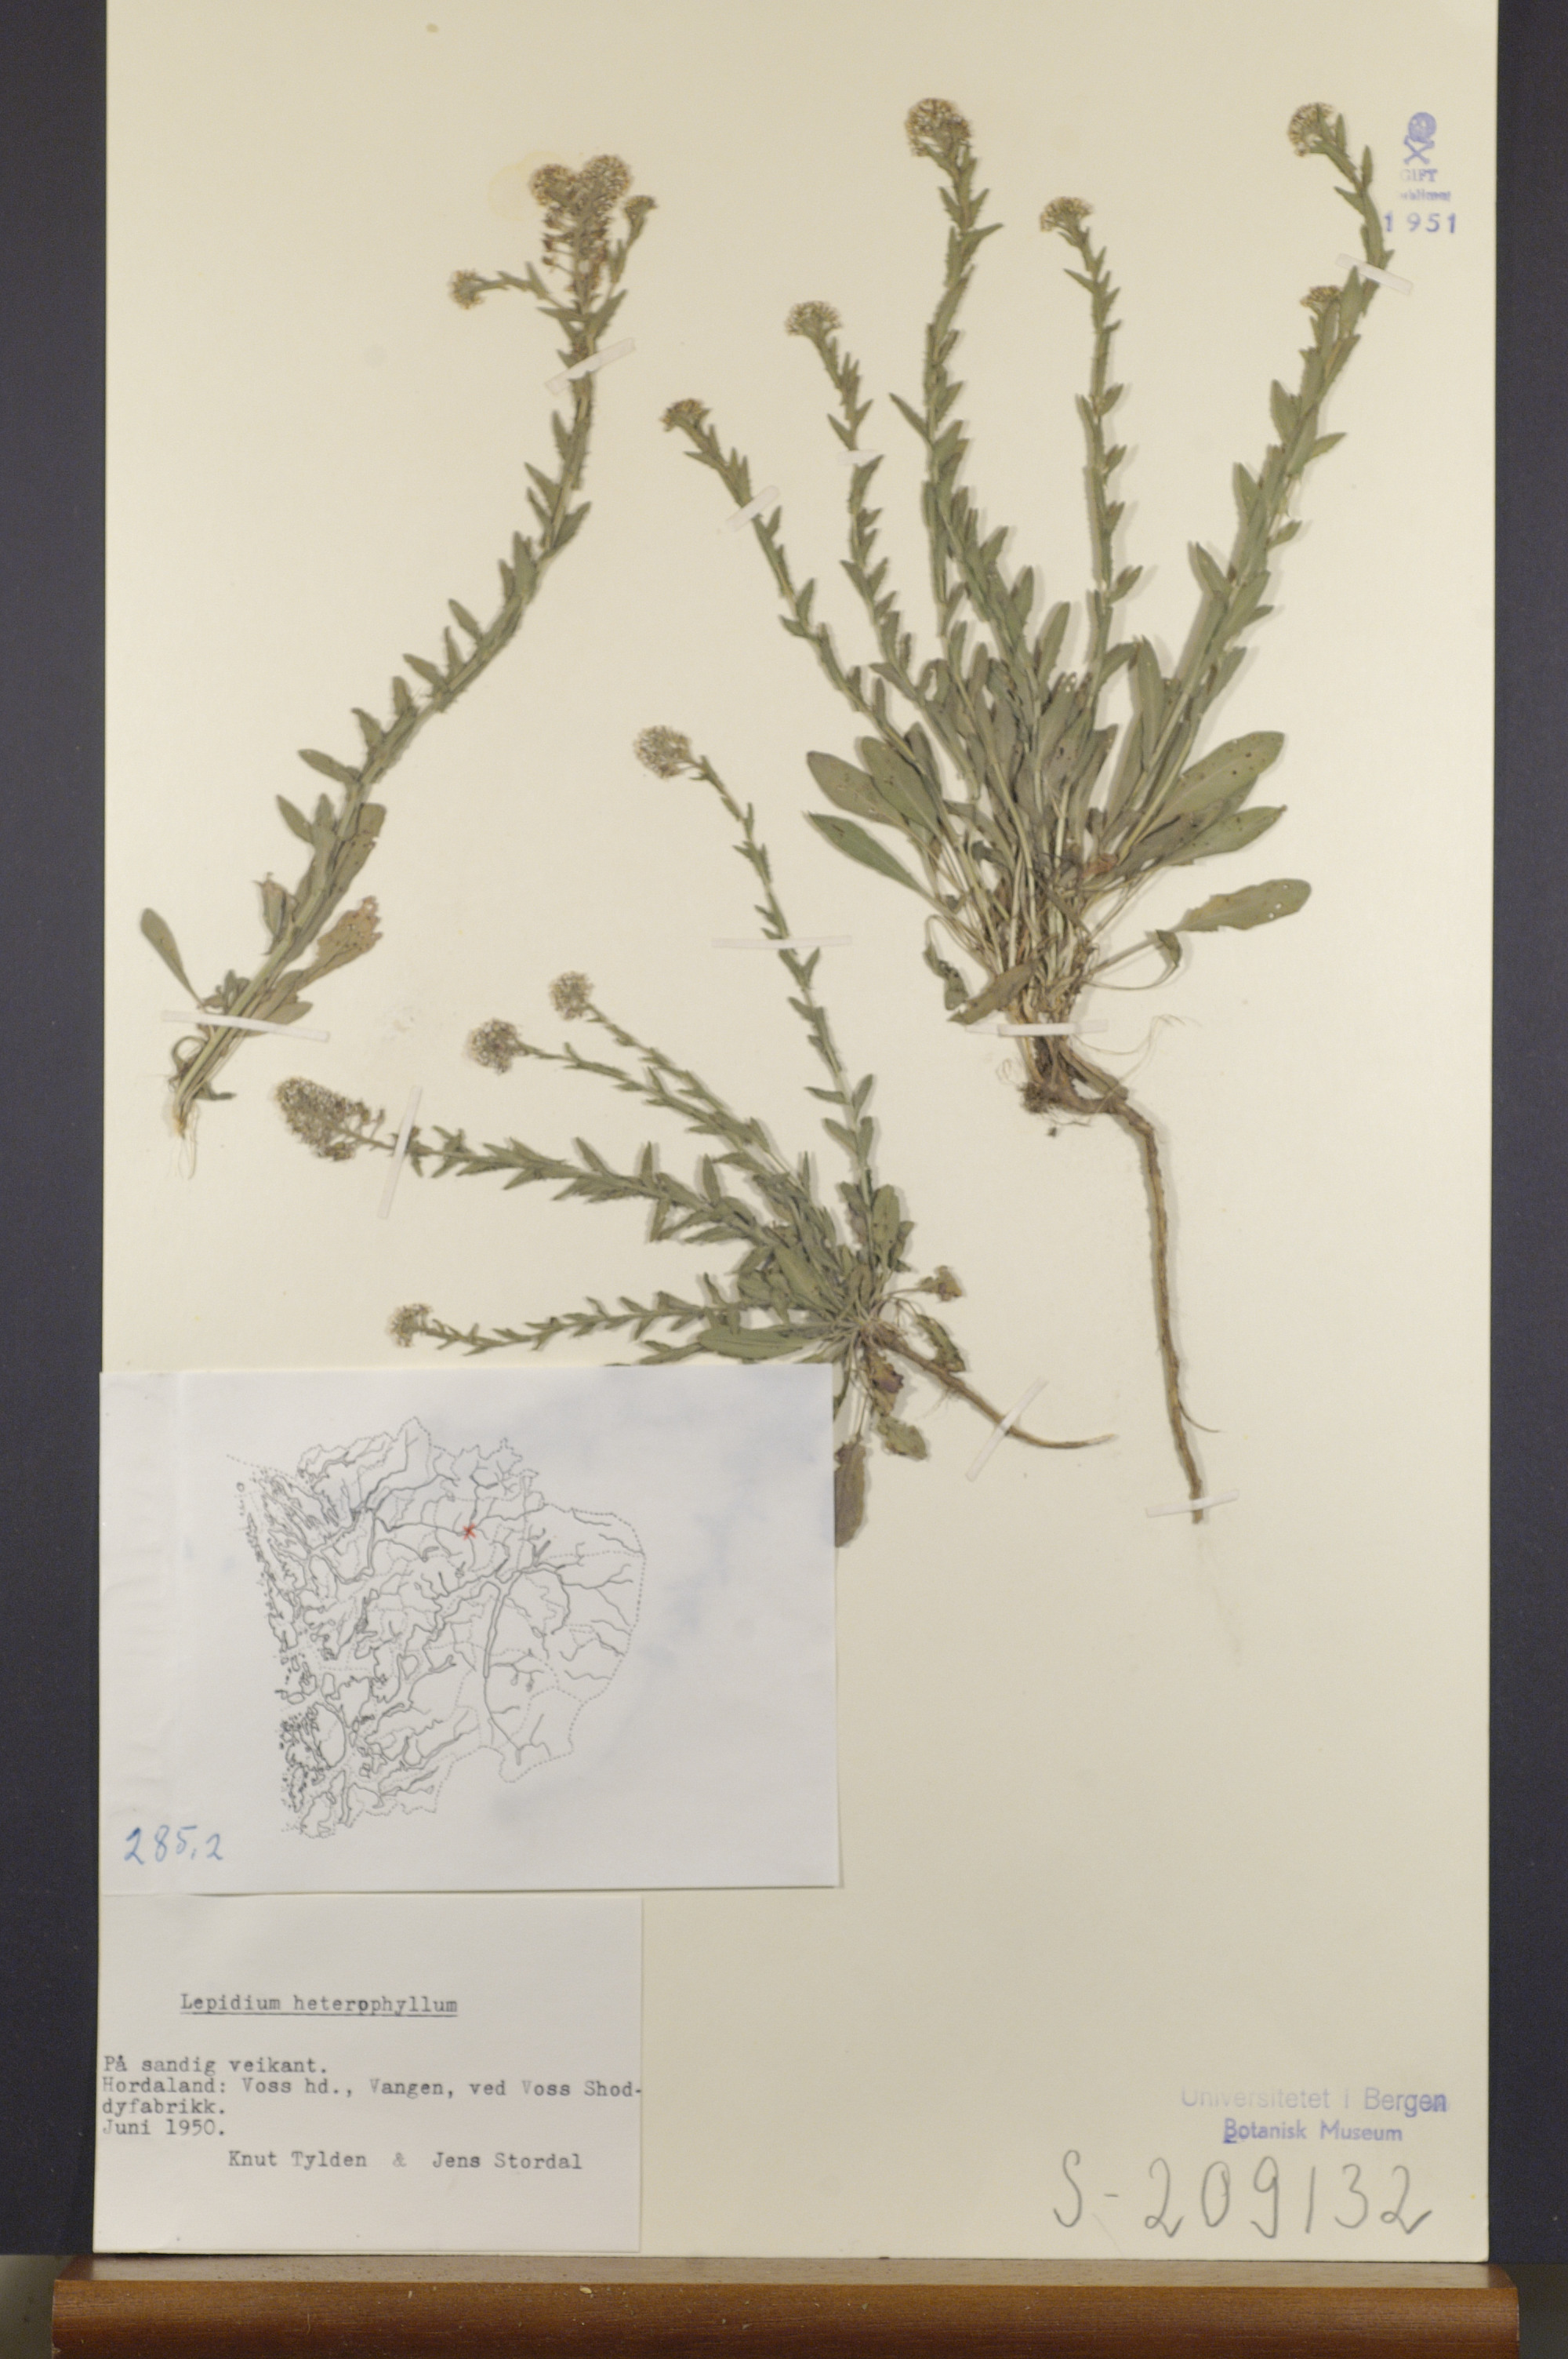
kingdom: Plantae
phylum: Tracheophyta
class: Magnoliopsida
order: Brassicales
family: Brassicaceae
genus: Lepidium
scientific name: Lepidium heterophyllum
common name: Smith's pepperwort
